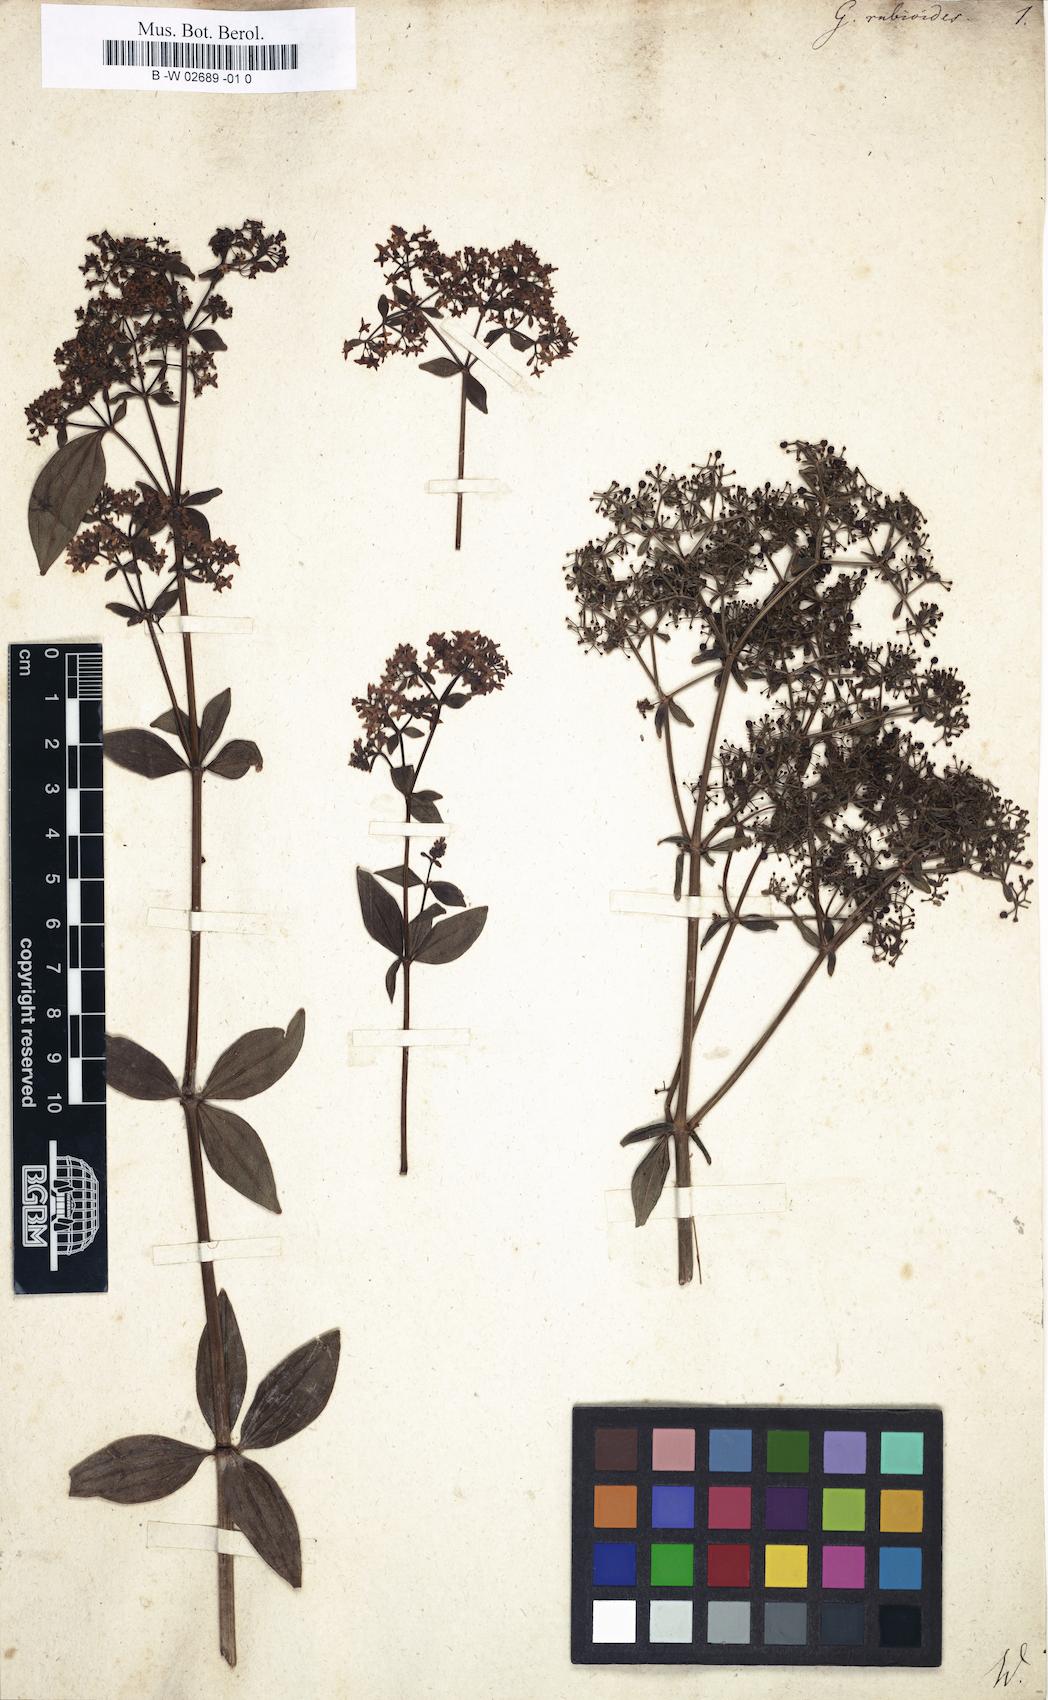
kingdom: Plantae
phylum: Tracheophyta
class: Magnoliopsida
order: Gentianales
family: Rubiaceae
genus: Galium
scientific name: Galium rubioides
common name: European bedstraw
